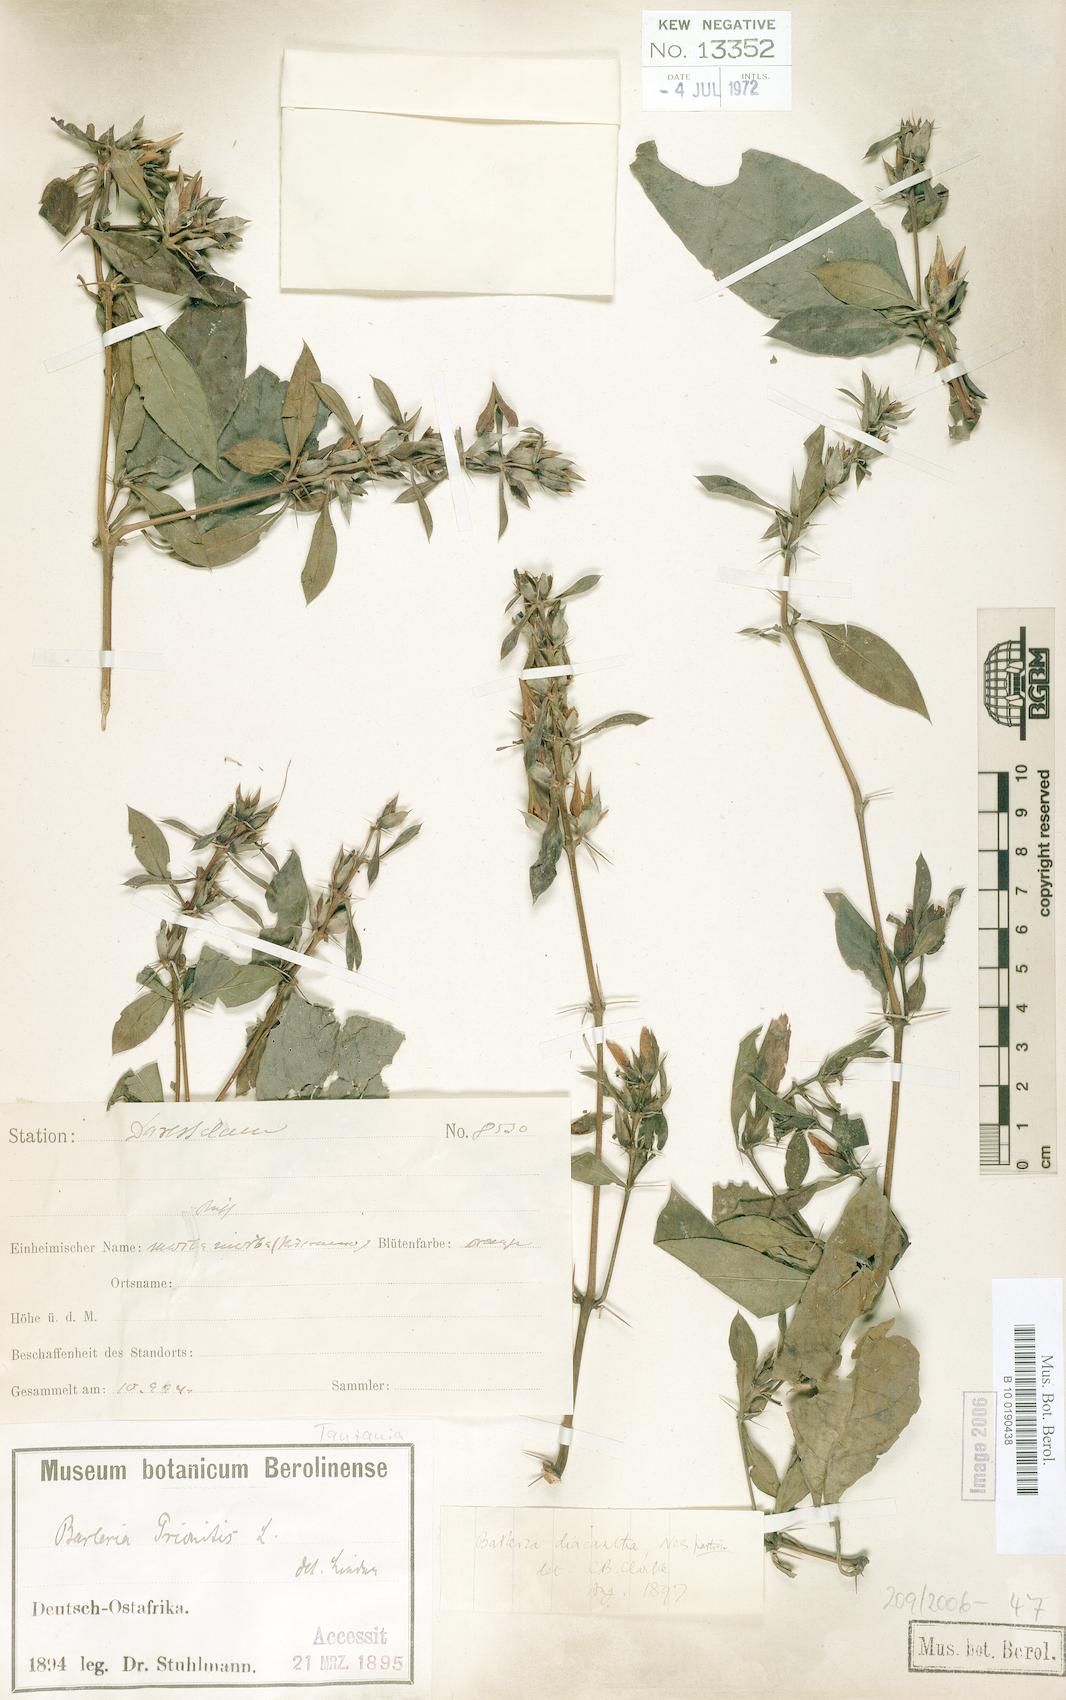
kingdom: Plantae
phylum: Tracheophyta
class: Magnoliopsida
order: Lamiales
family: Acanthaceae
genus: Barleria
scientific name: Barleria trispinosa
